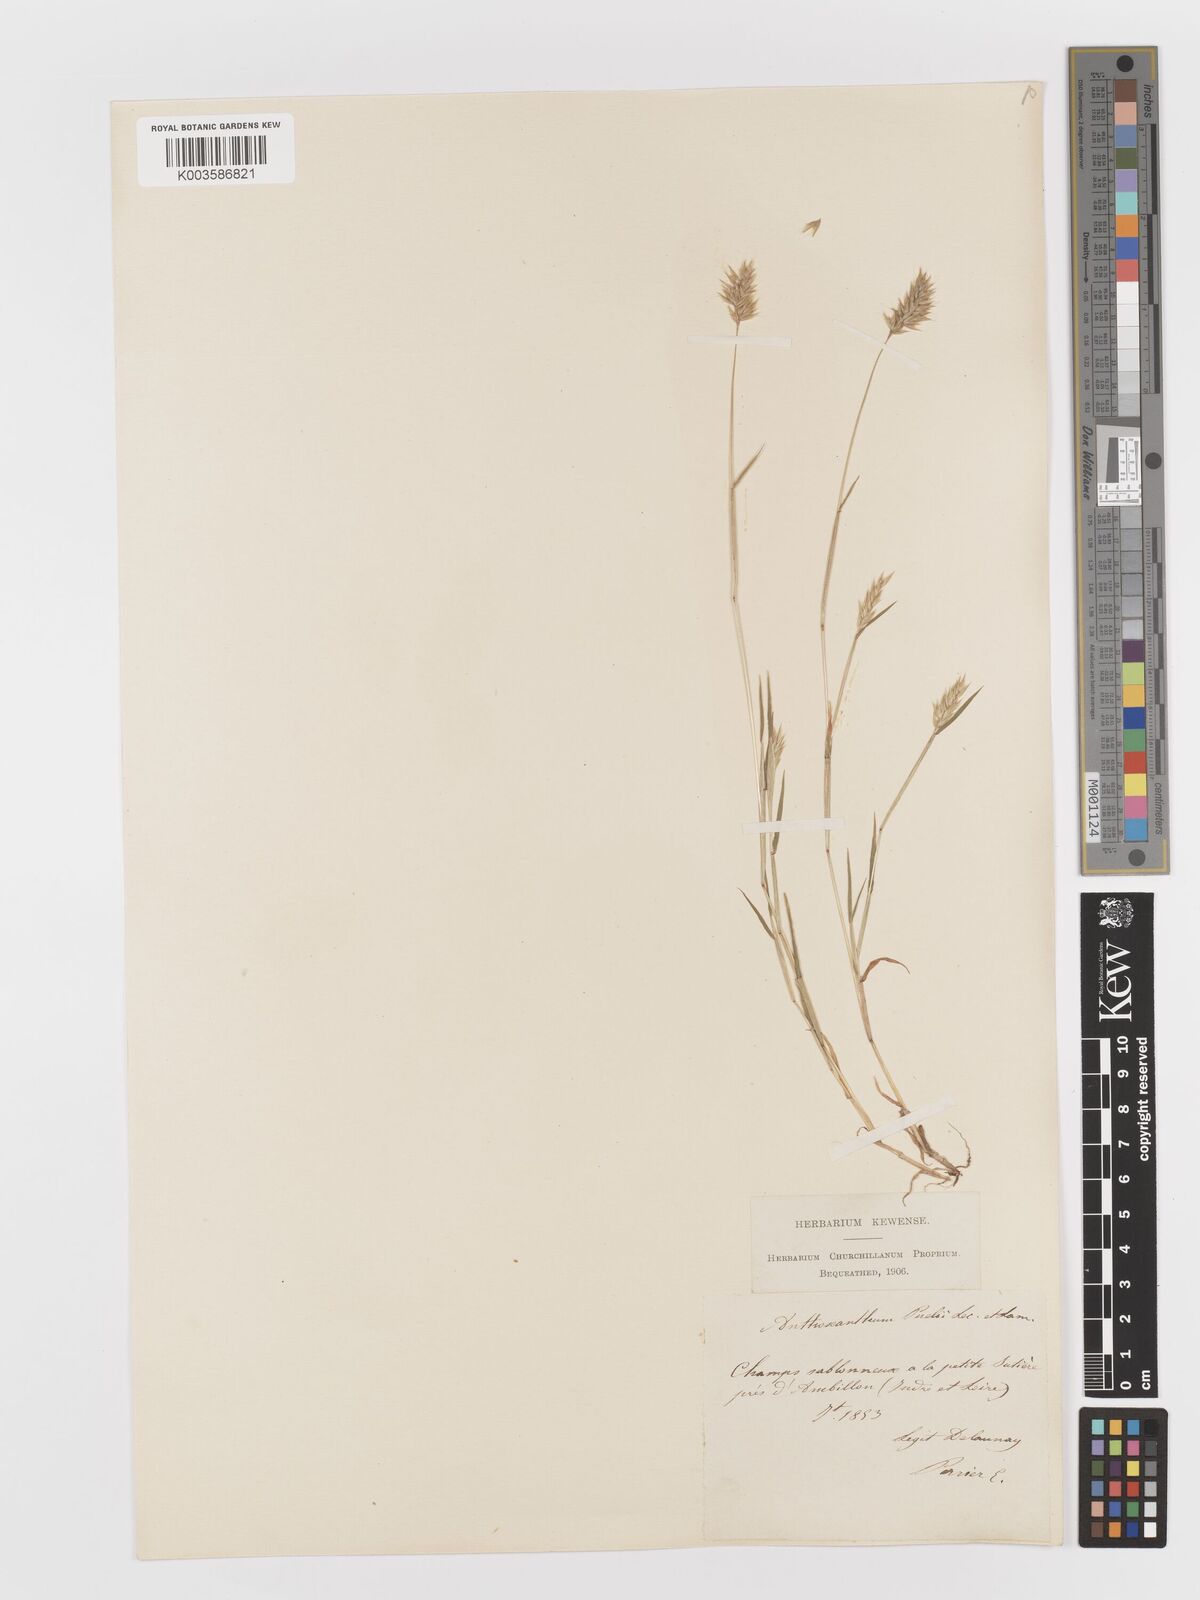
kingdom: Plantae
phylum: Tracheophyta
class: Liliopsida
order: Poales
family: Poaceae
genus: Anthoxanthum
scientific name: Anthoxanthum
